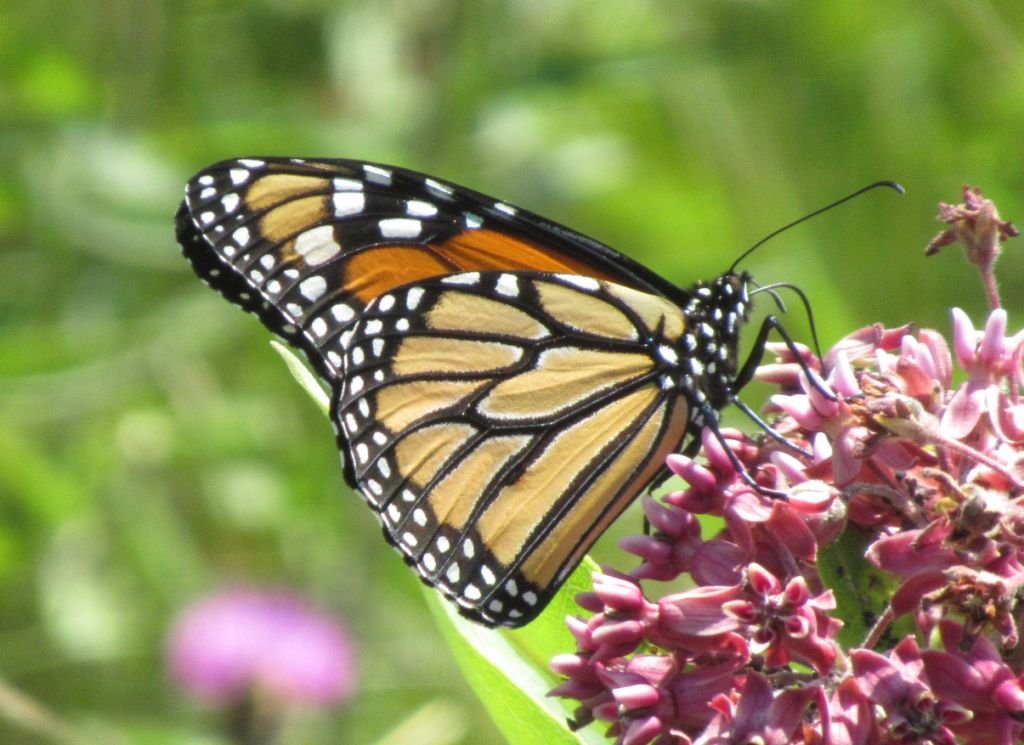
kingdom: Animalia
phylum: Arthropoda
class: Insecta
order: Lepidoptera
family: Nymphalidae
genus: Danaus
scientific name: Danaus plexippus
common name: Monarch
